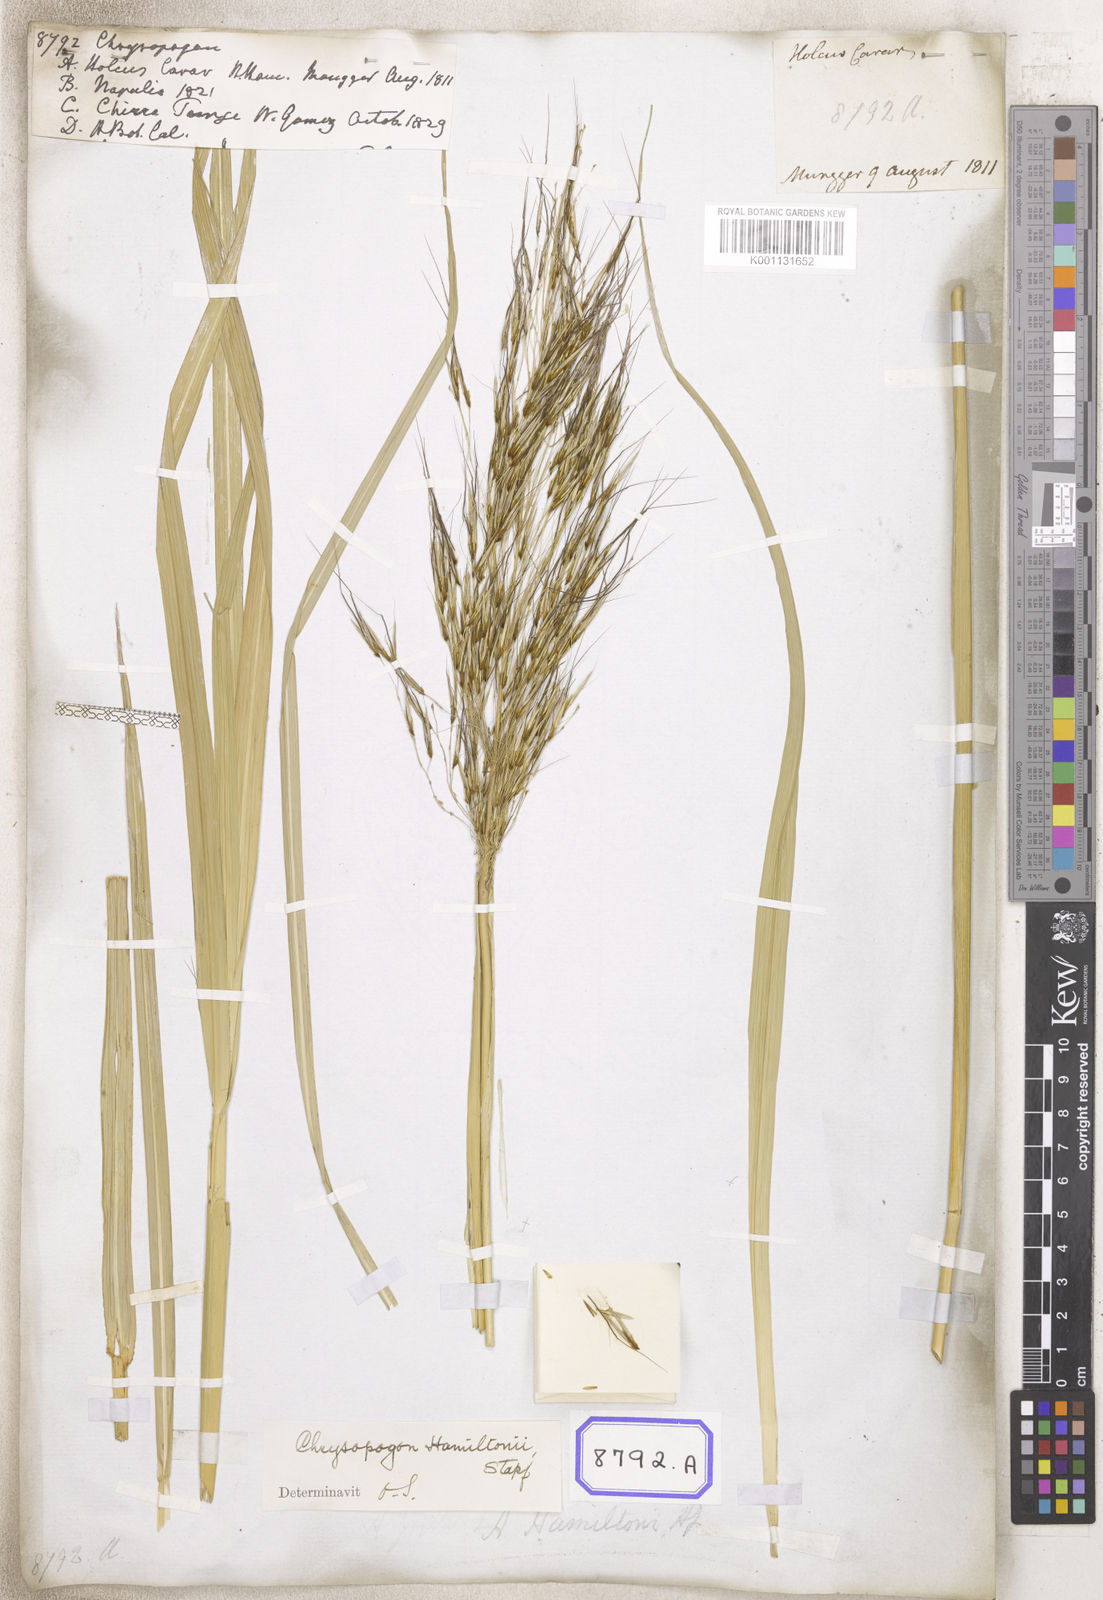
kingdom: Plantae
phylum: Tracheophyta
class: Liliopsida
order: Poales
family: Poaceae
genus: Chrysopogon
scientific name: Chrysopogon
